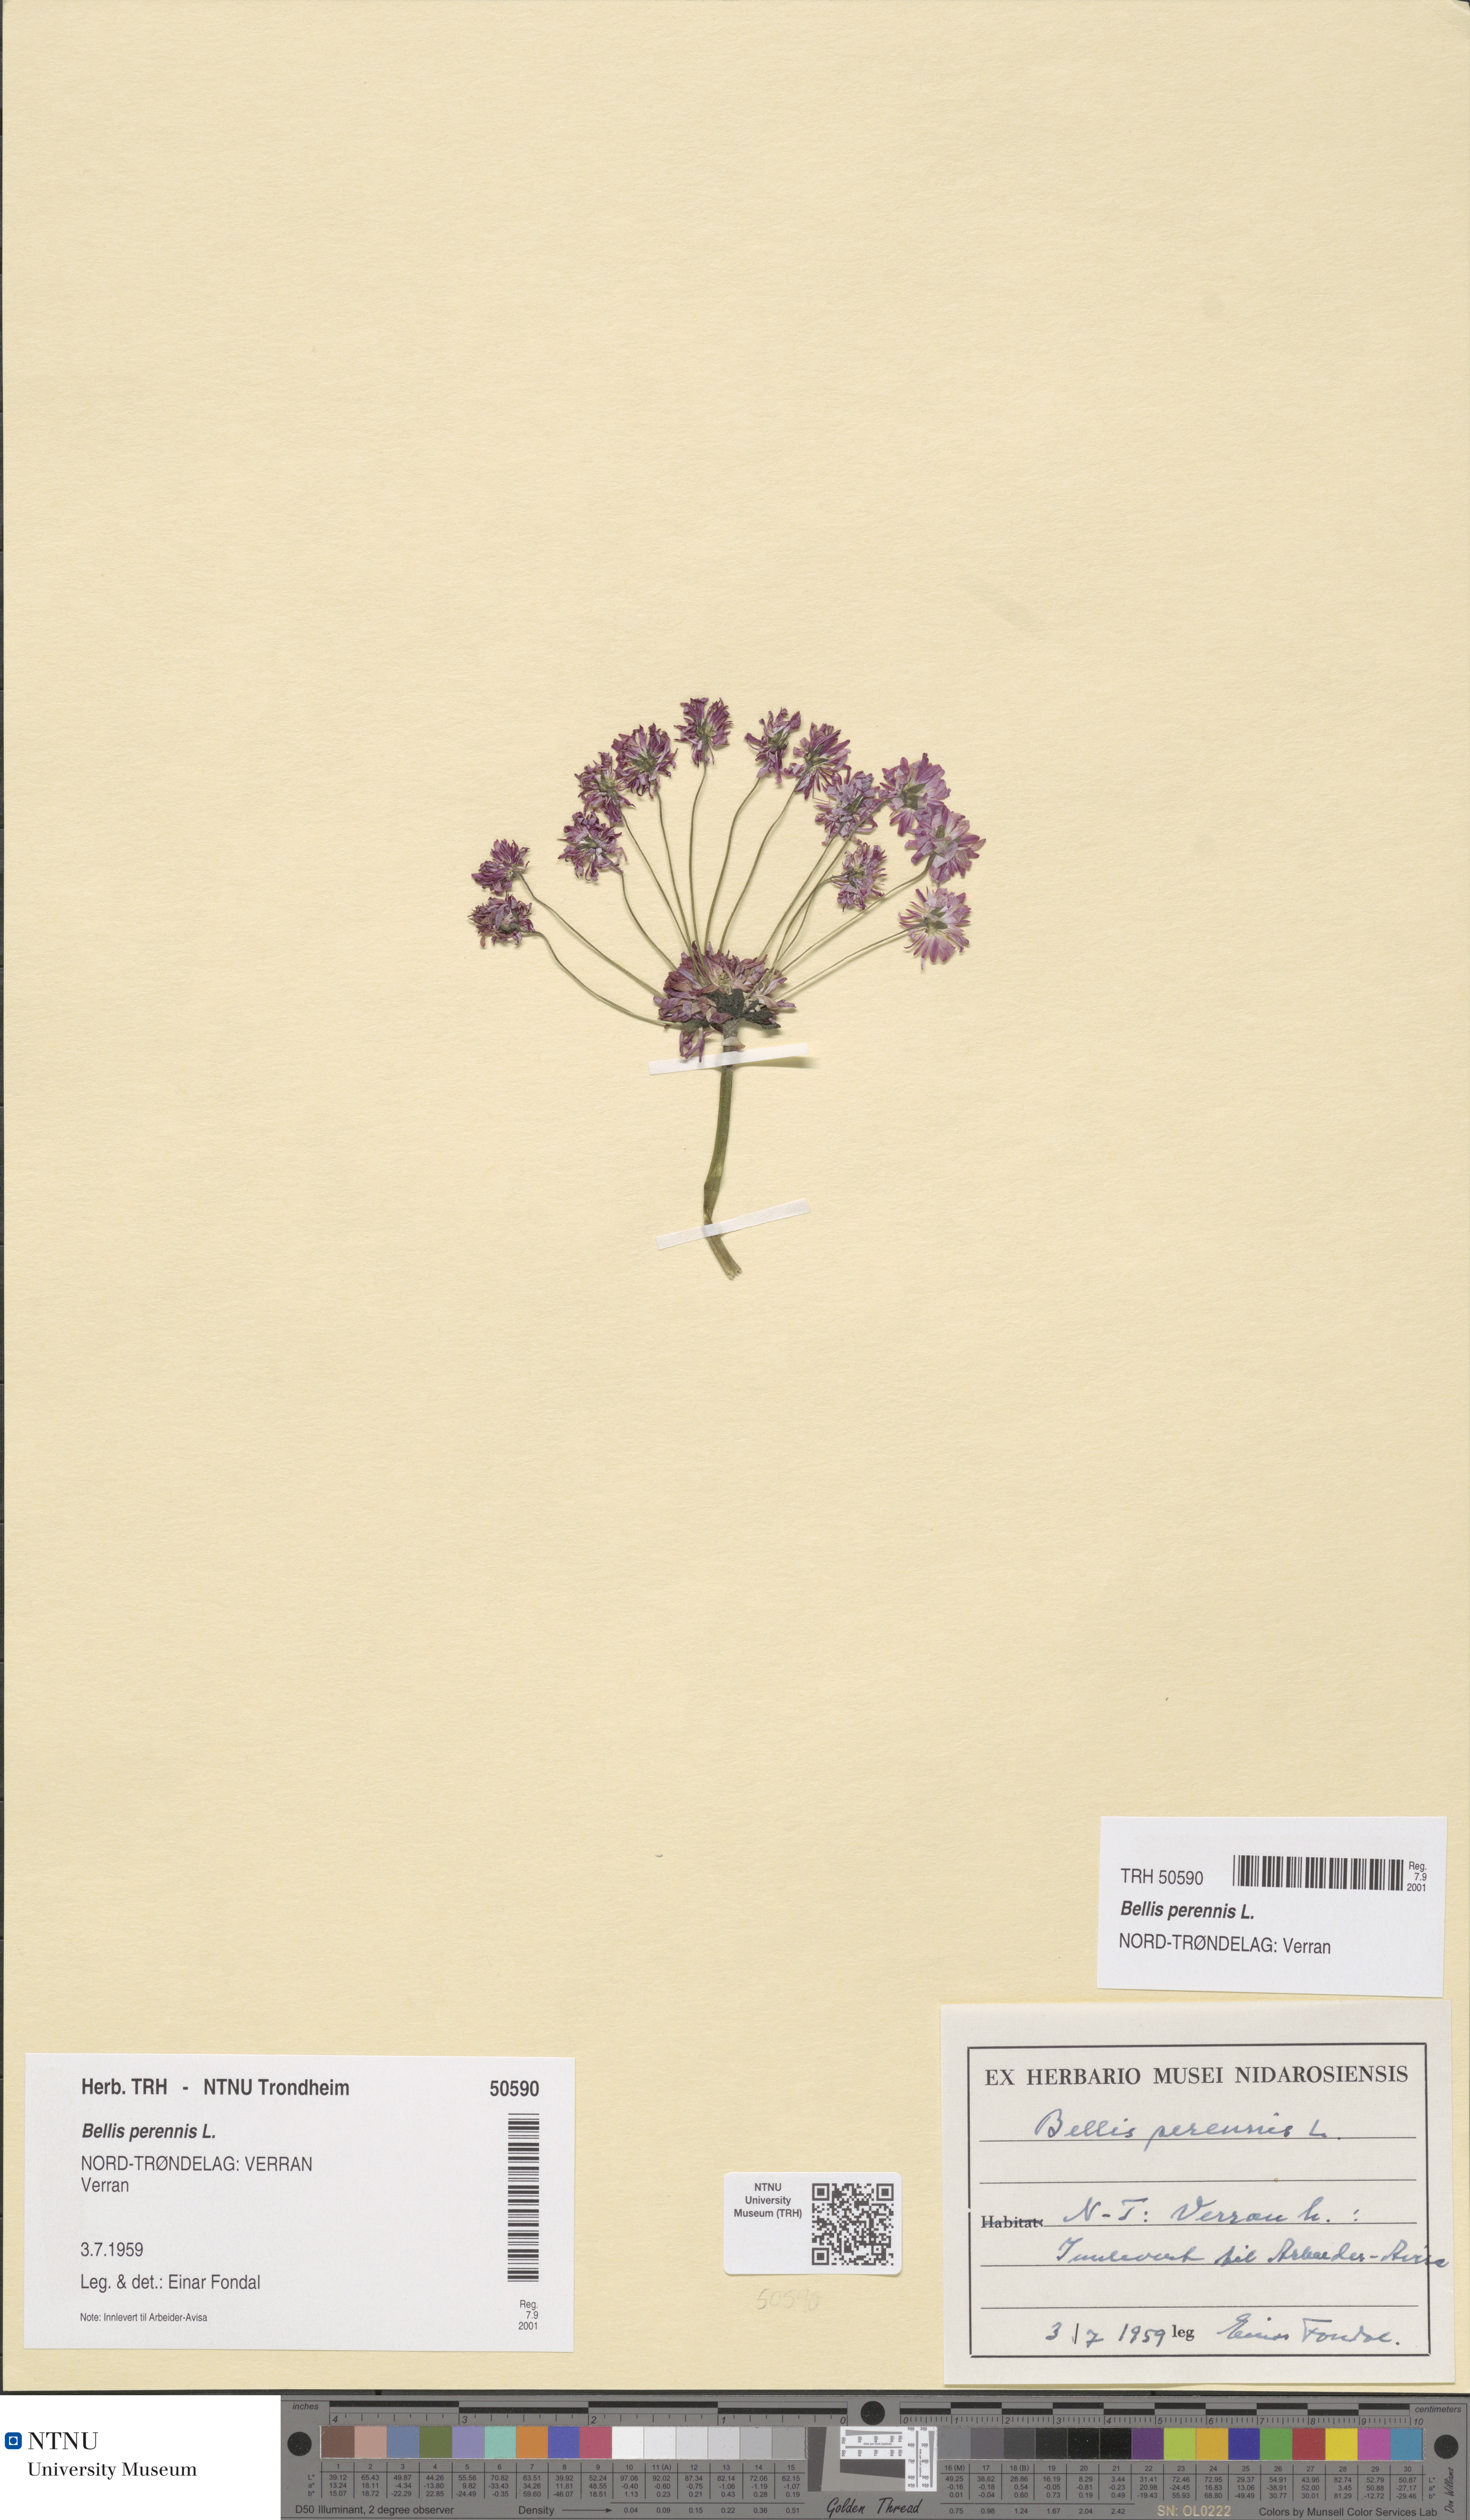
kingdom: Plantae
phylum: Tracheophyta
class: Magnoliopsida
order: Asterales
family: Asteraceae
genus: Bellis
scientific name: Bellis perennis
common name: Lawndaisy
